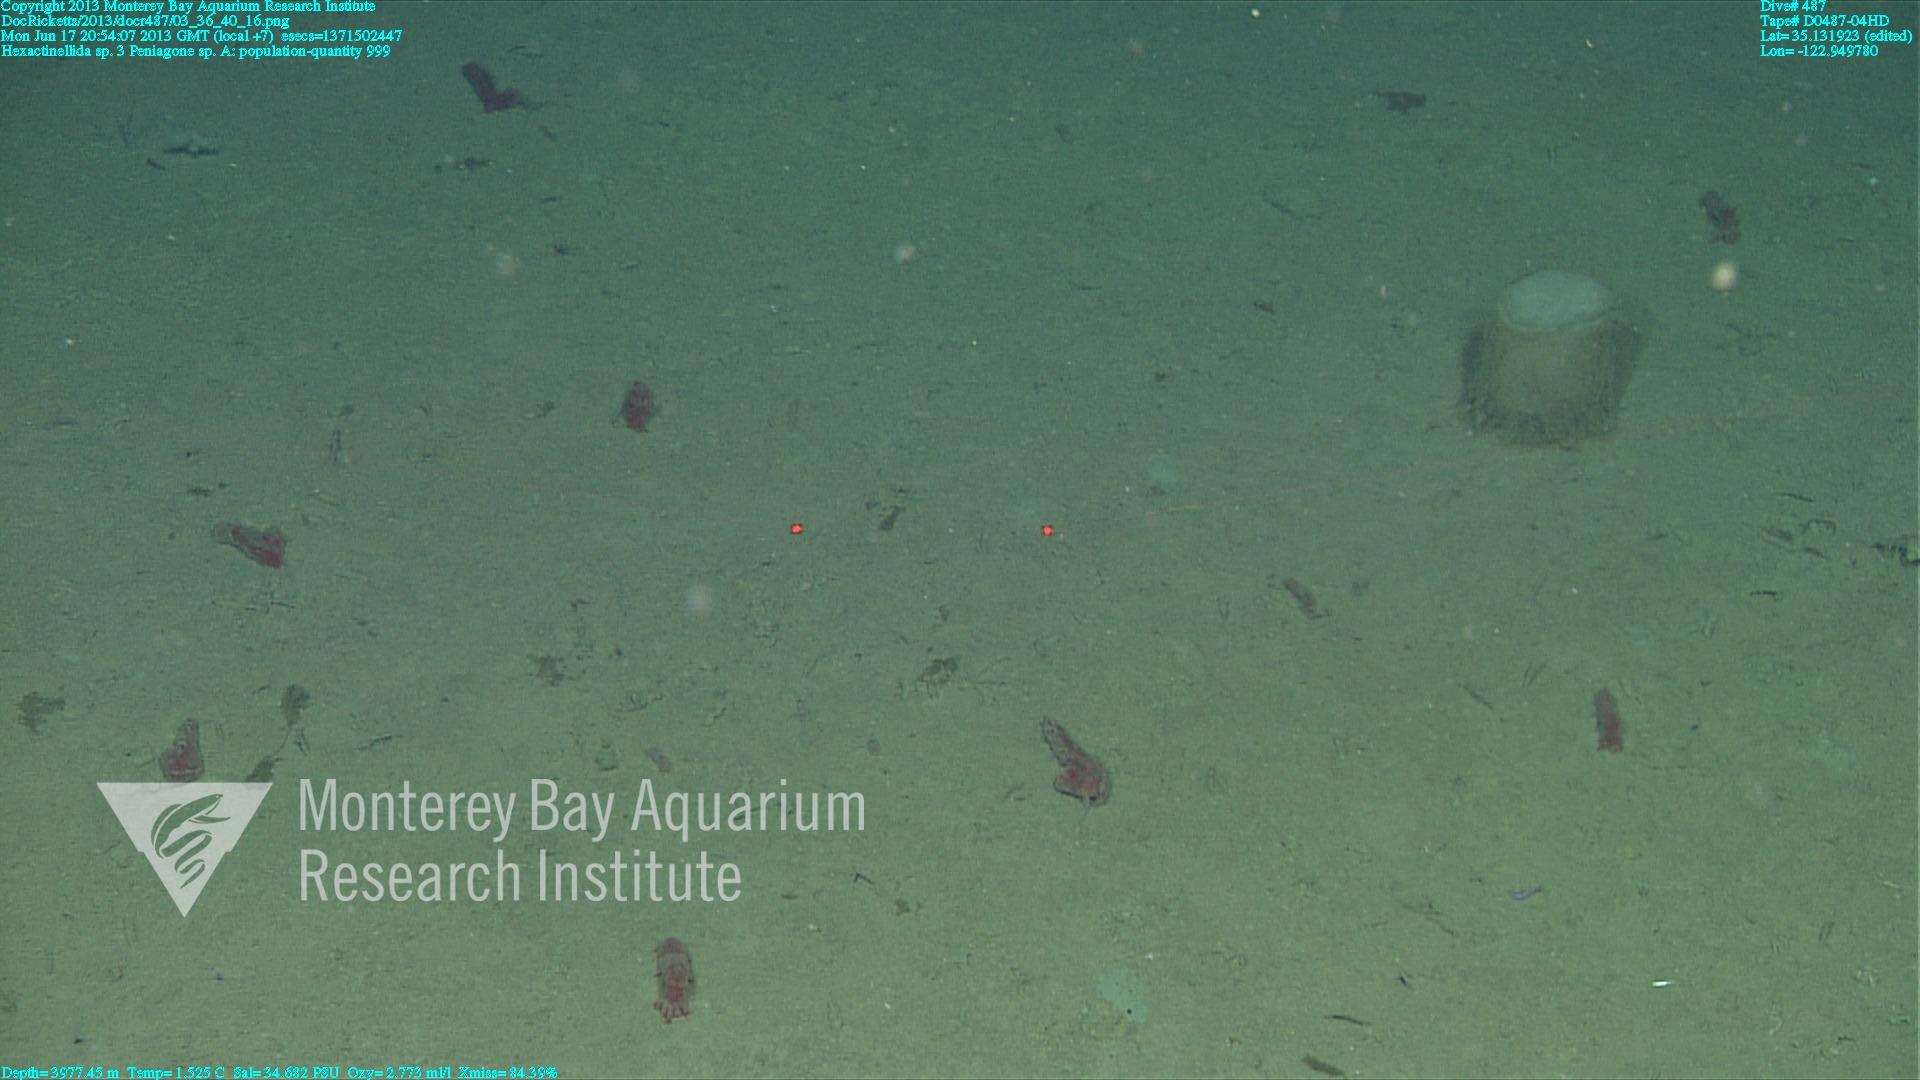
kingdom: Animalia
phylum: Porifera
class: Hexactinellida
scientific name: Hexactinellida
